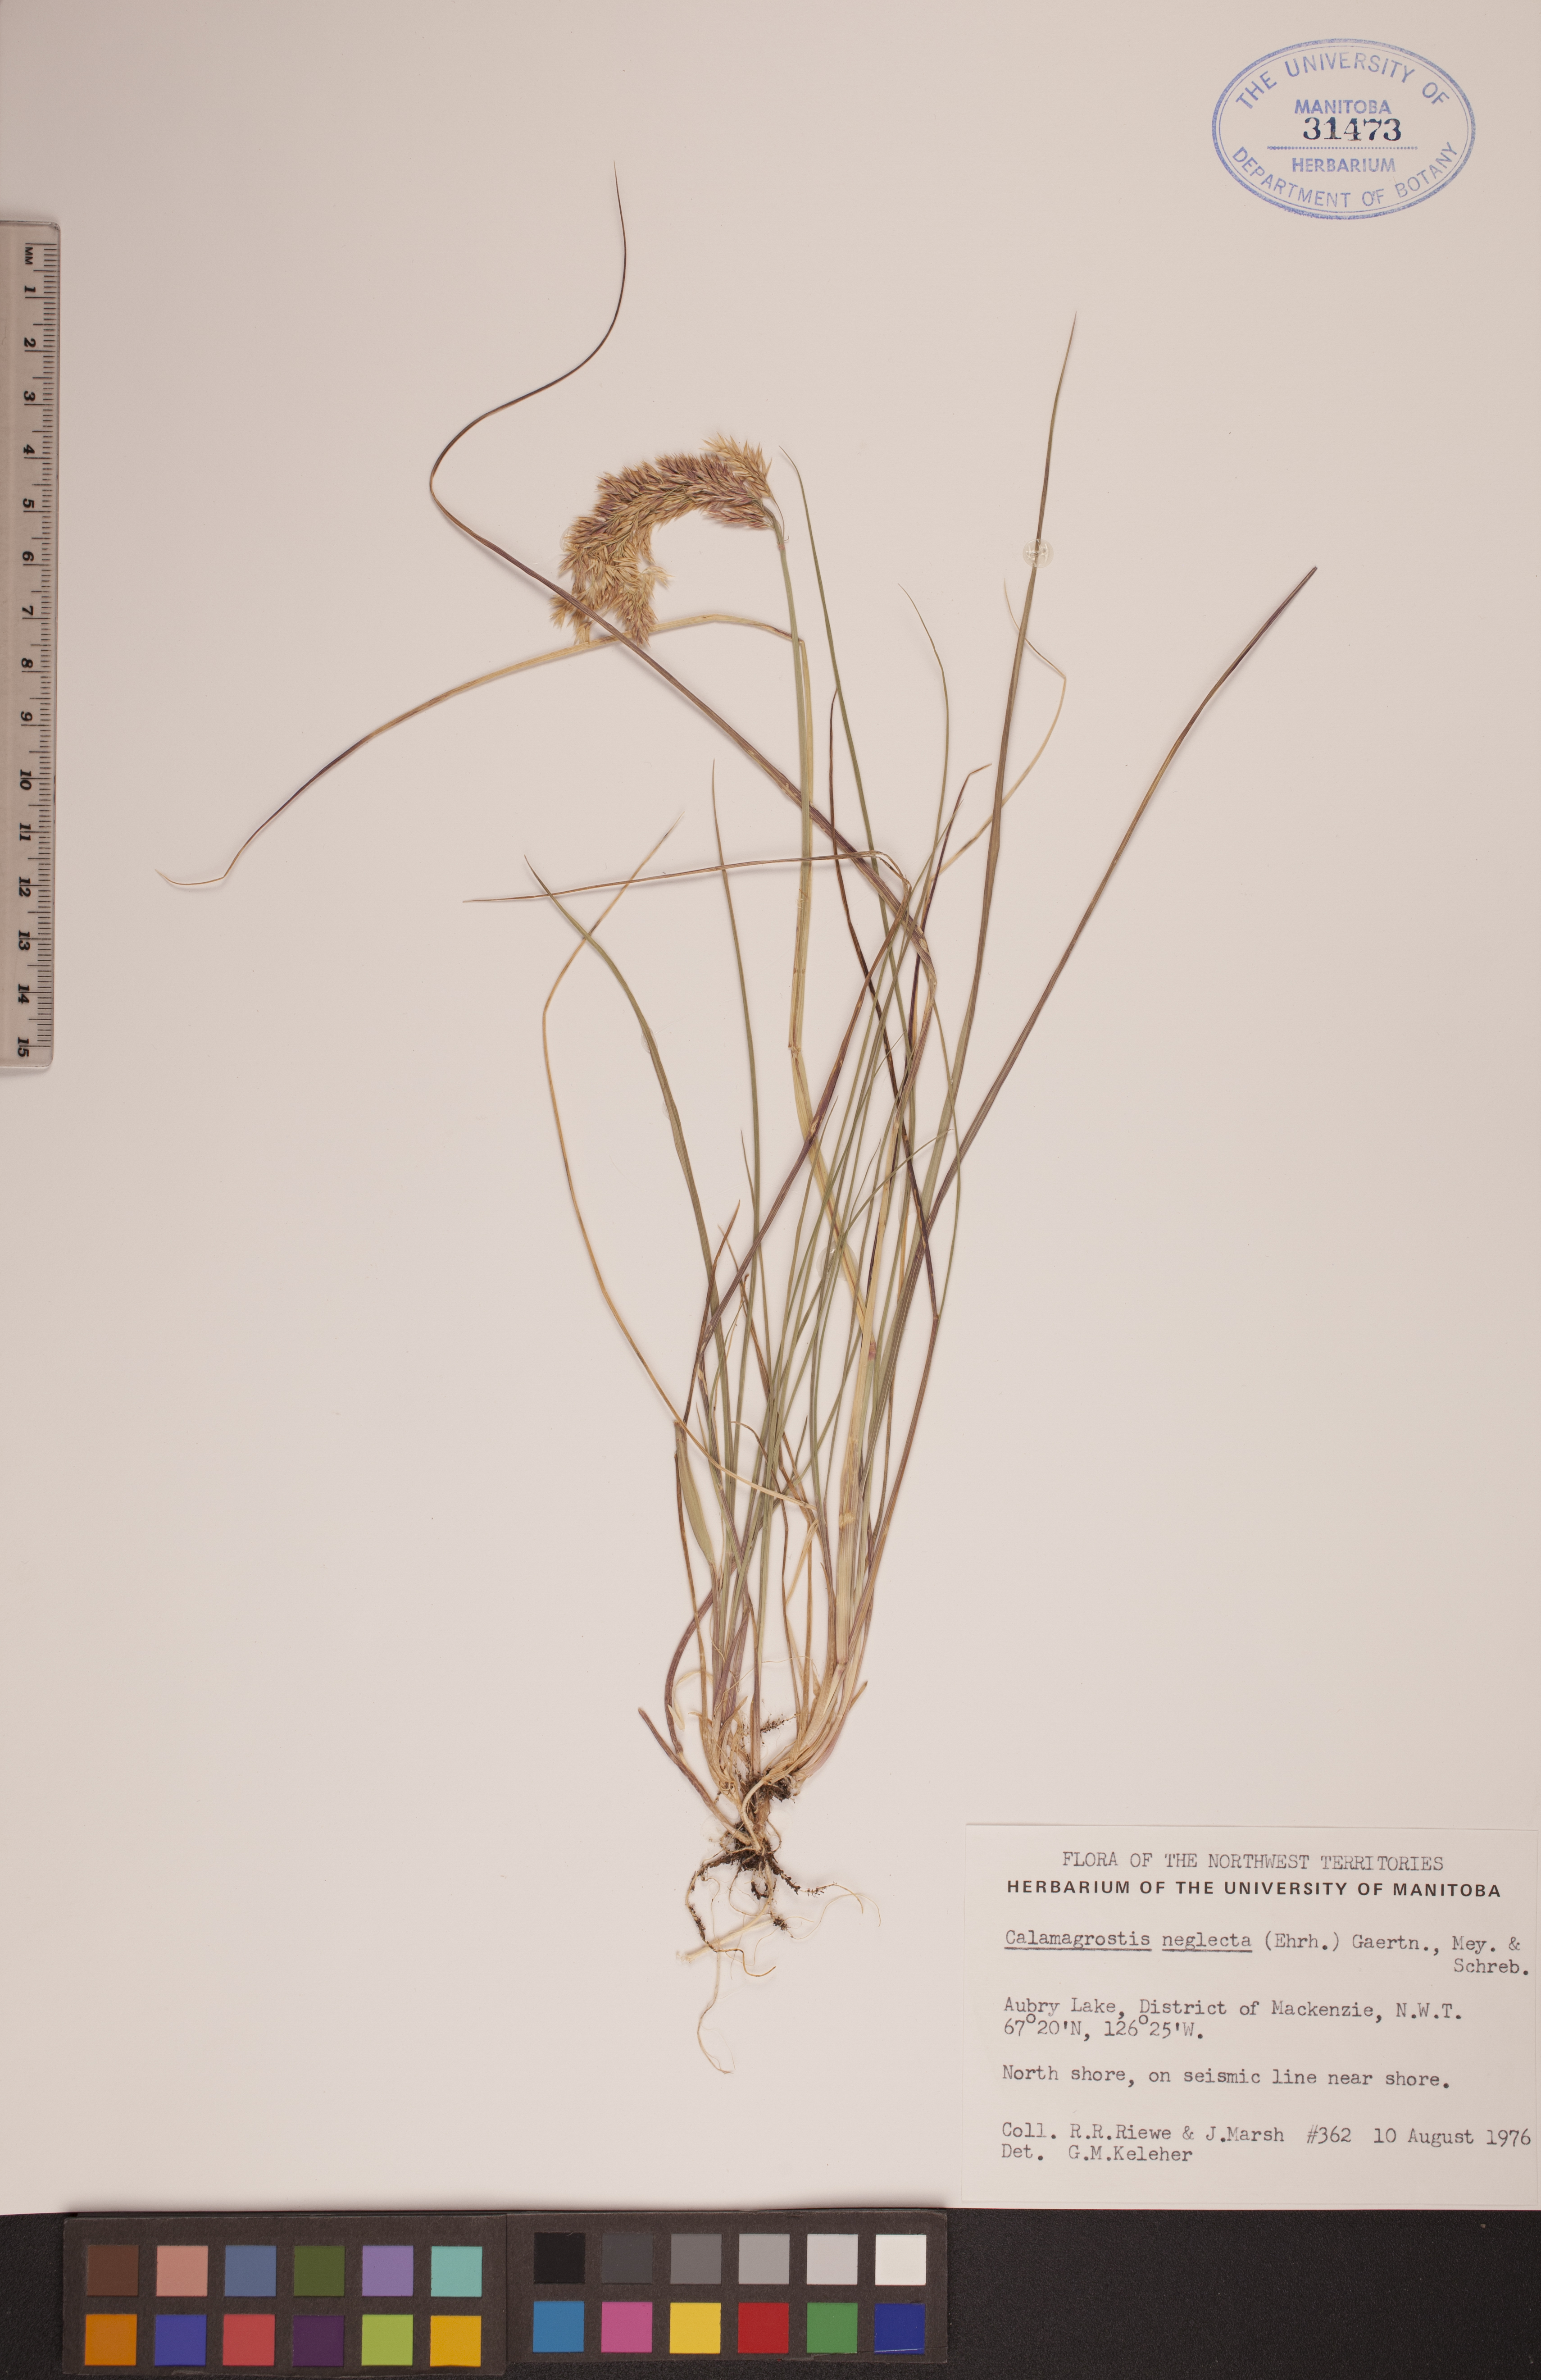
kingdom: Plantae
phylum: Tracheophyta
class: Liliopsida
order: Poales
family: Poaceae
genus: Achnatherum
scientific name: Achnatherum calamagrostis
